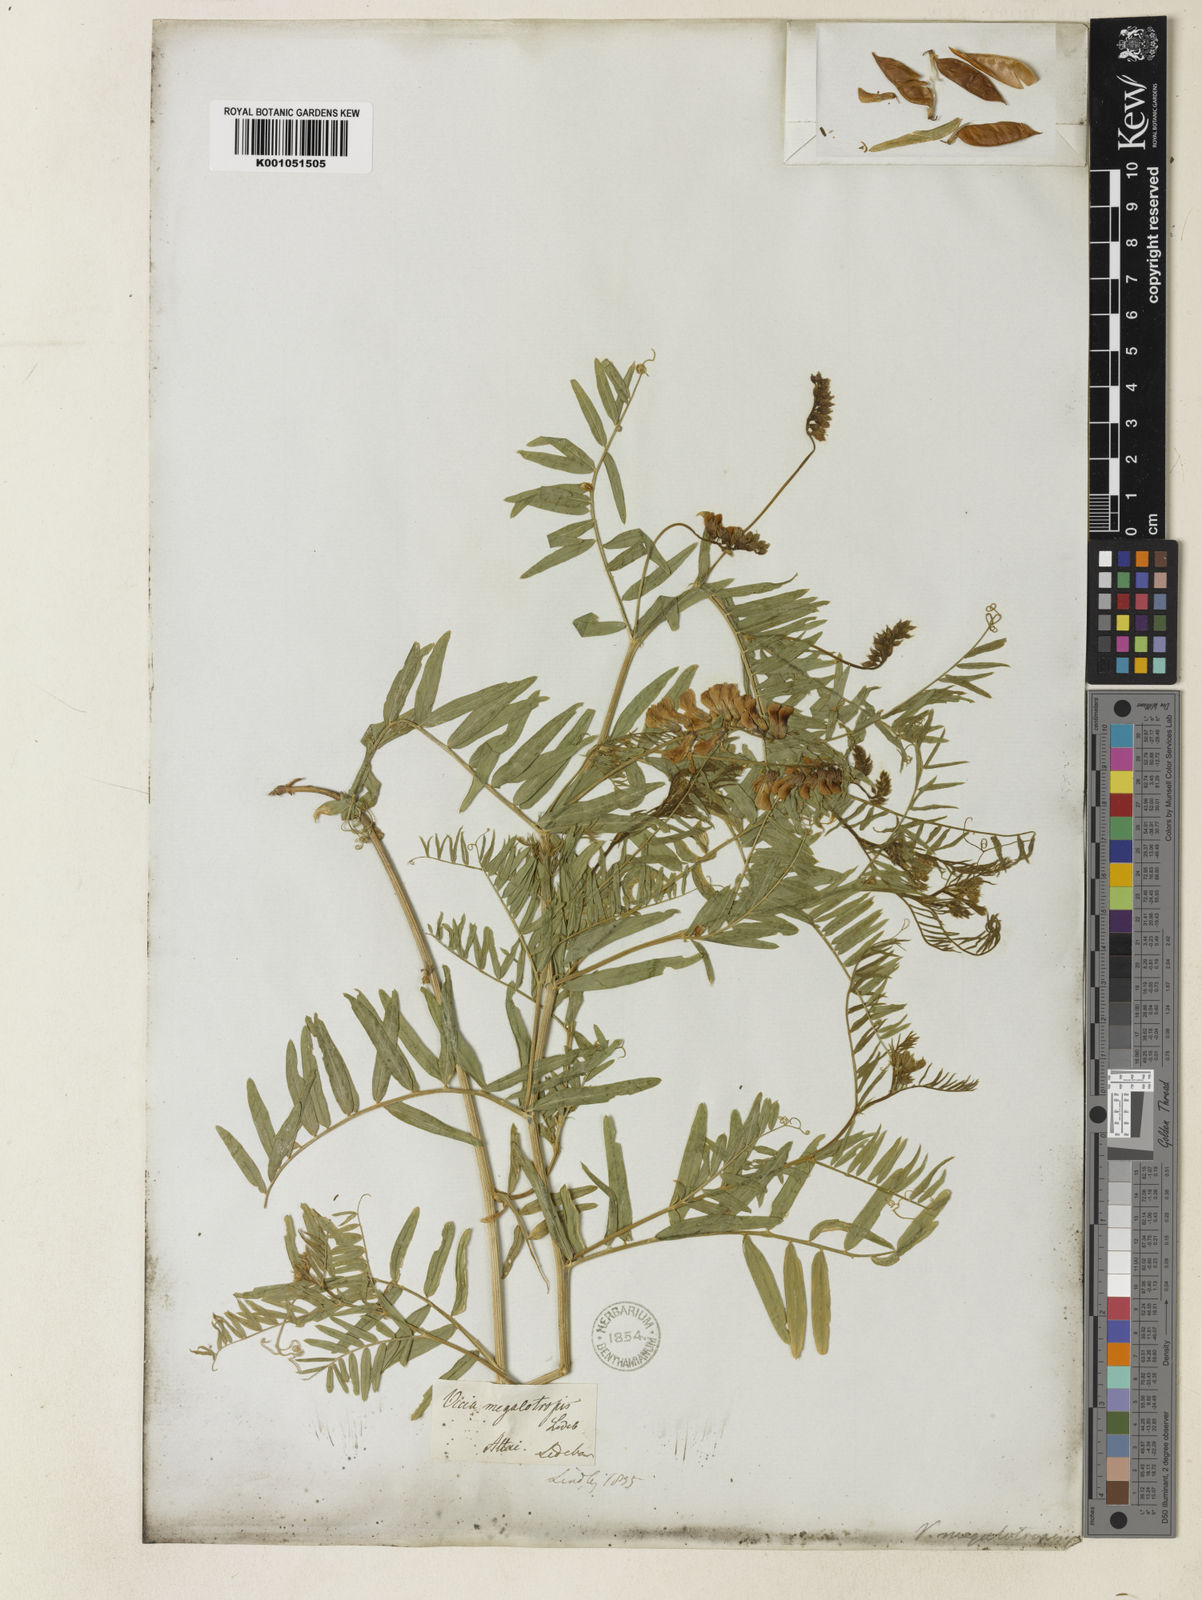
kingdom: Plantae
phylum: Tracheophyta
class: Magnoliopsida
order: Fabales
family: Fabaceae
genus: Vicia
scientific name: Vicia megalotropis
